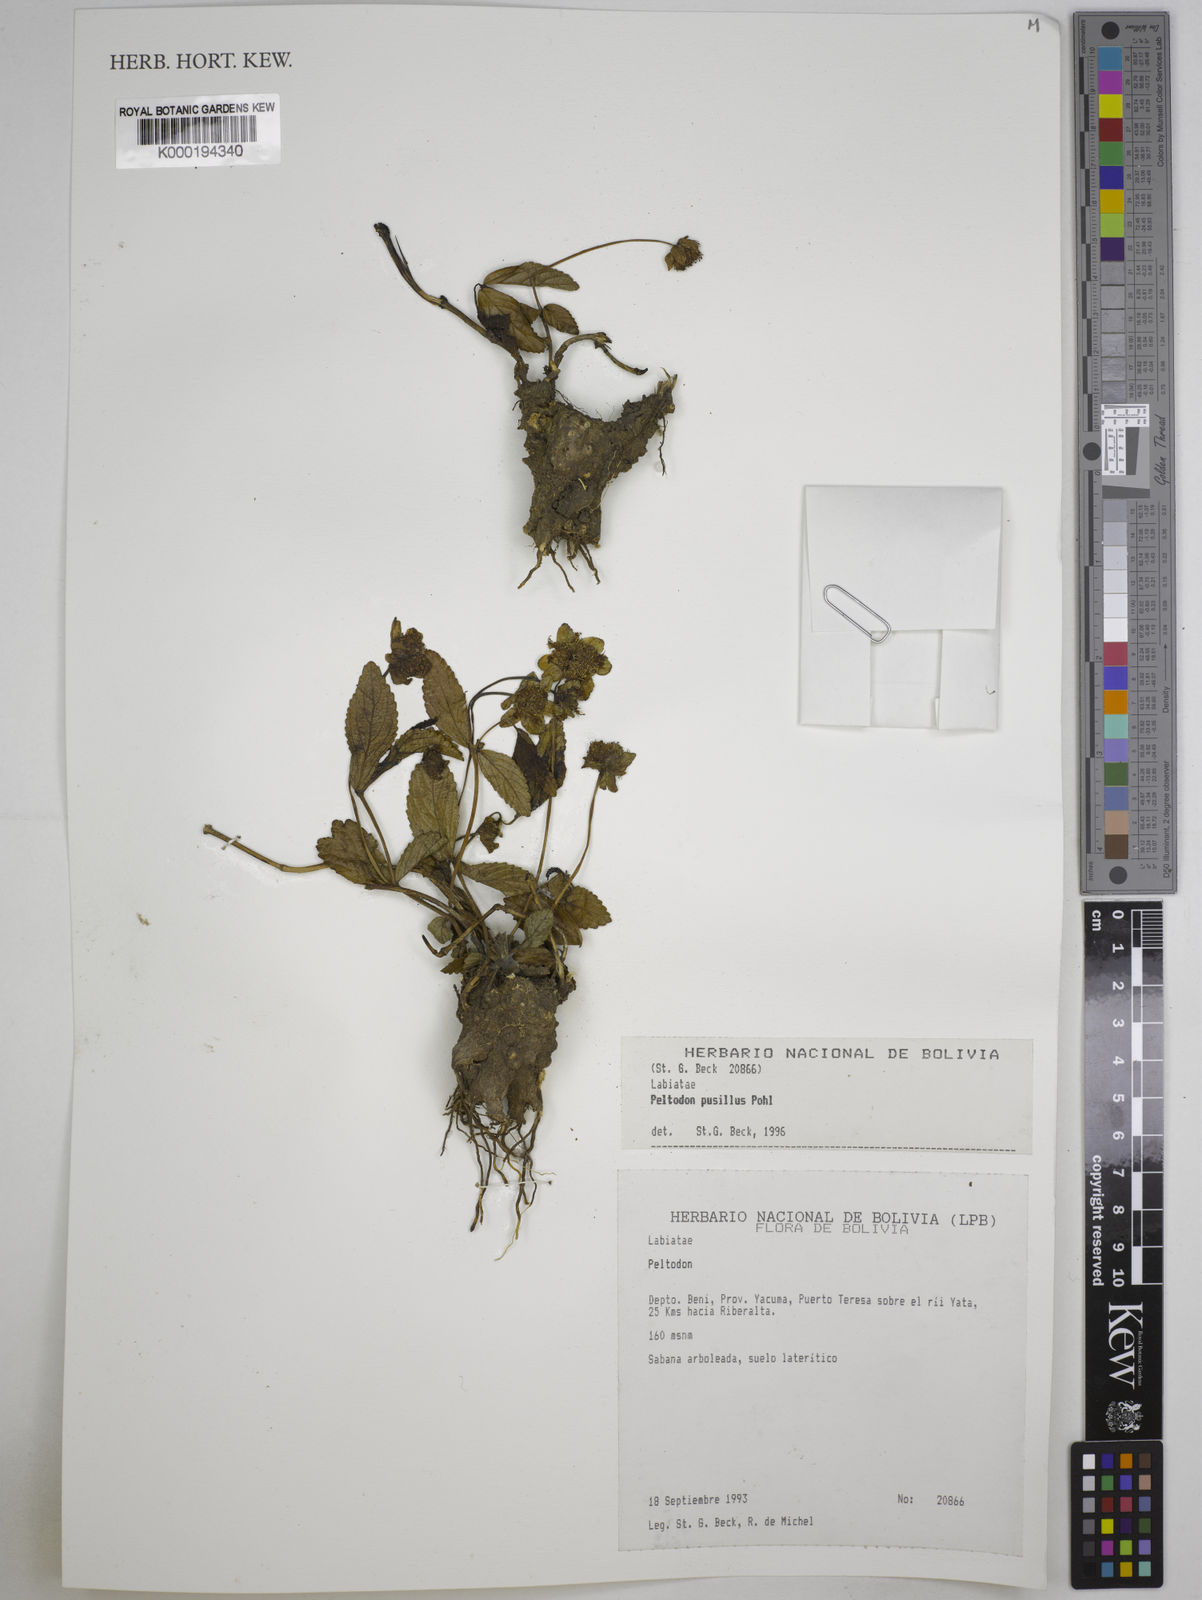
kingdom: Plantae
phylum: Tracheophyta
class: Magnoliopsida
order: Lamiales
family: Lamiaceae
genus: Hyptis
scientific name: Hyptis pusilla
